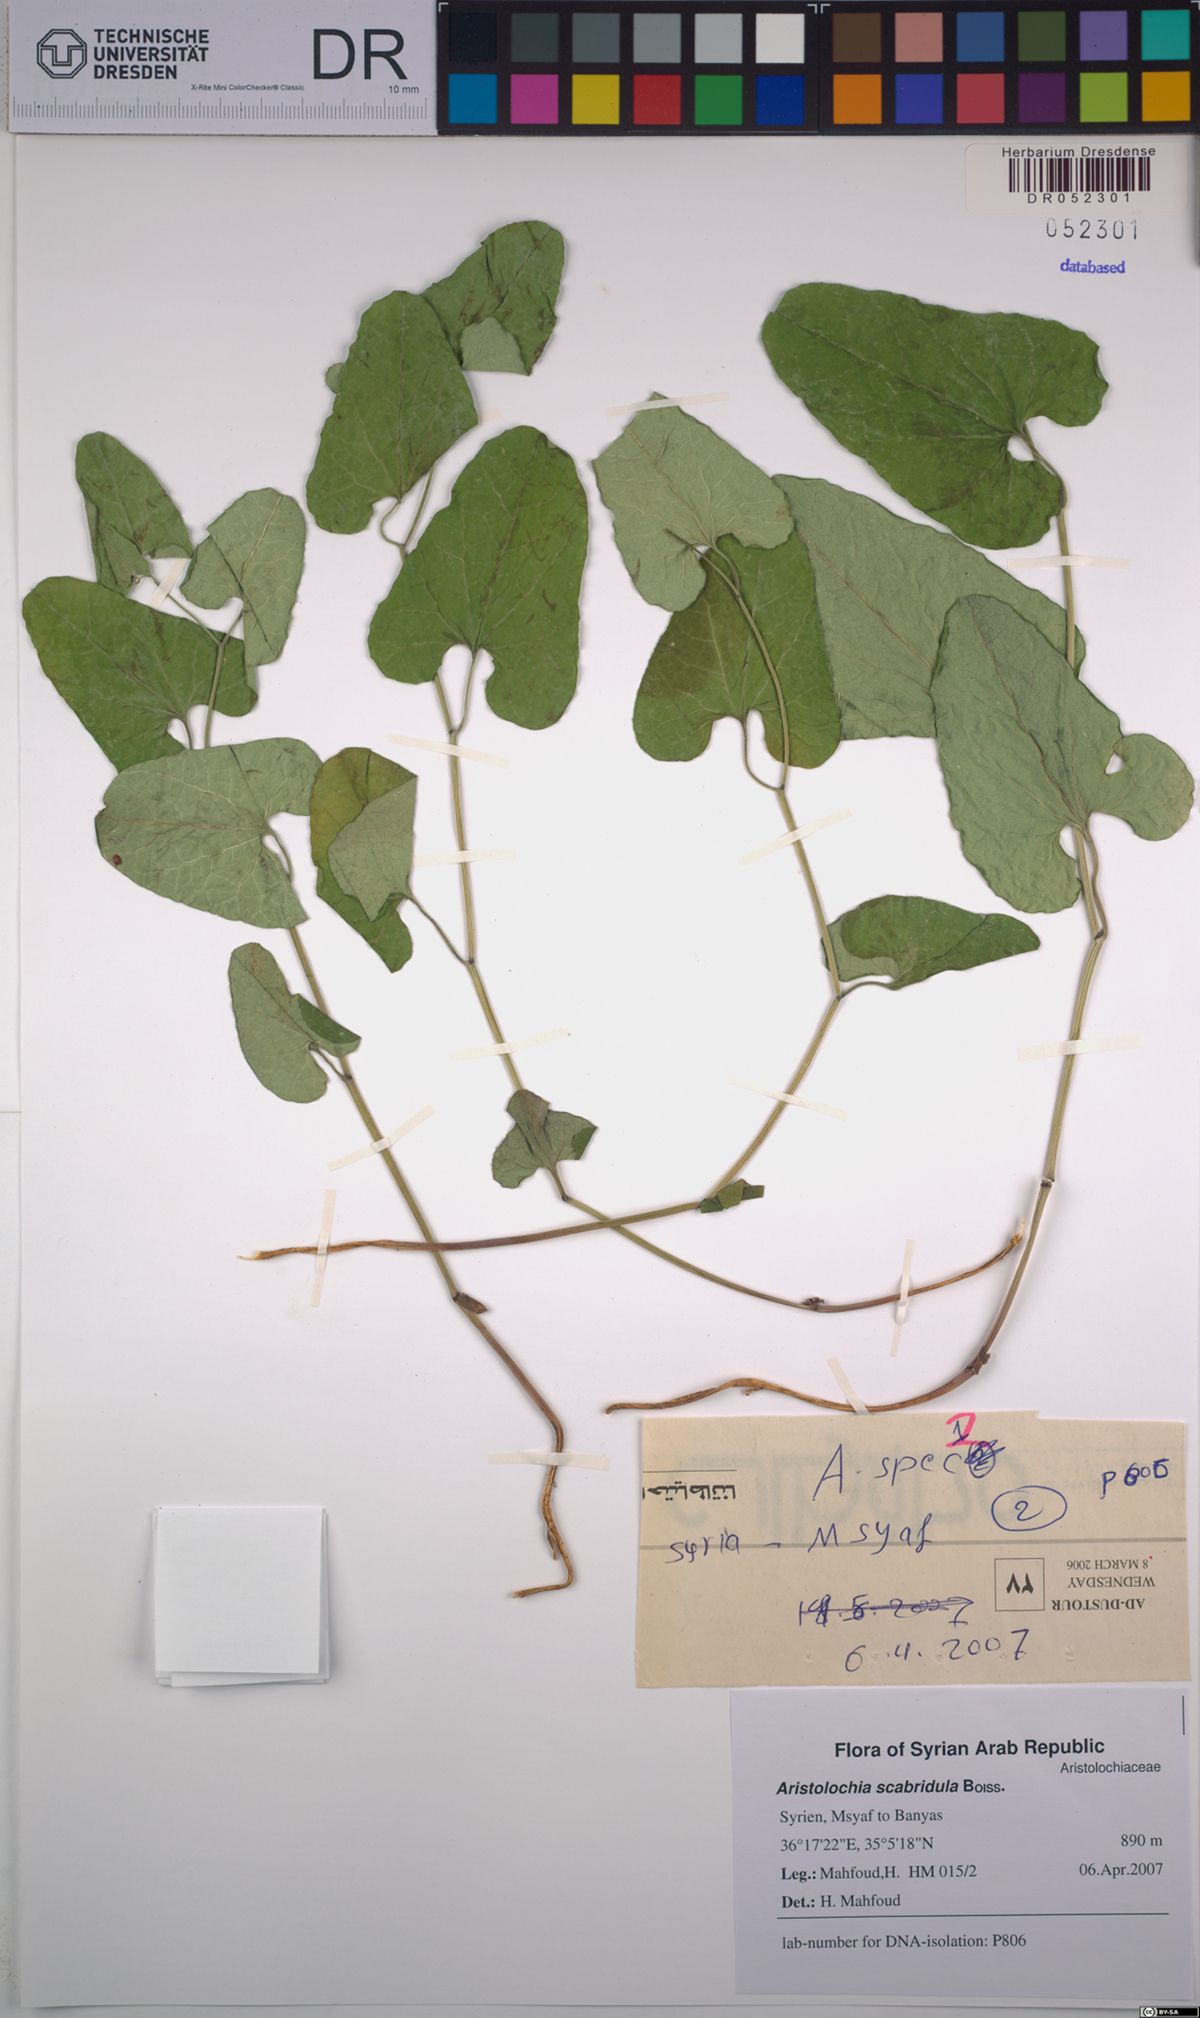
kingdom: Plantae
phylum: Tracheophyta
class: Magnoliopsida
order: Piperales
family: Aristolochiaceae
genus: Aristolochia
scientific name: Aristolochia paecilantha
